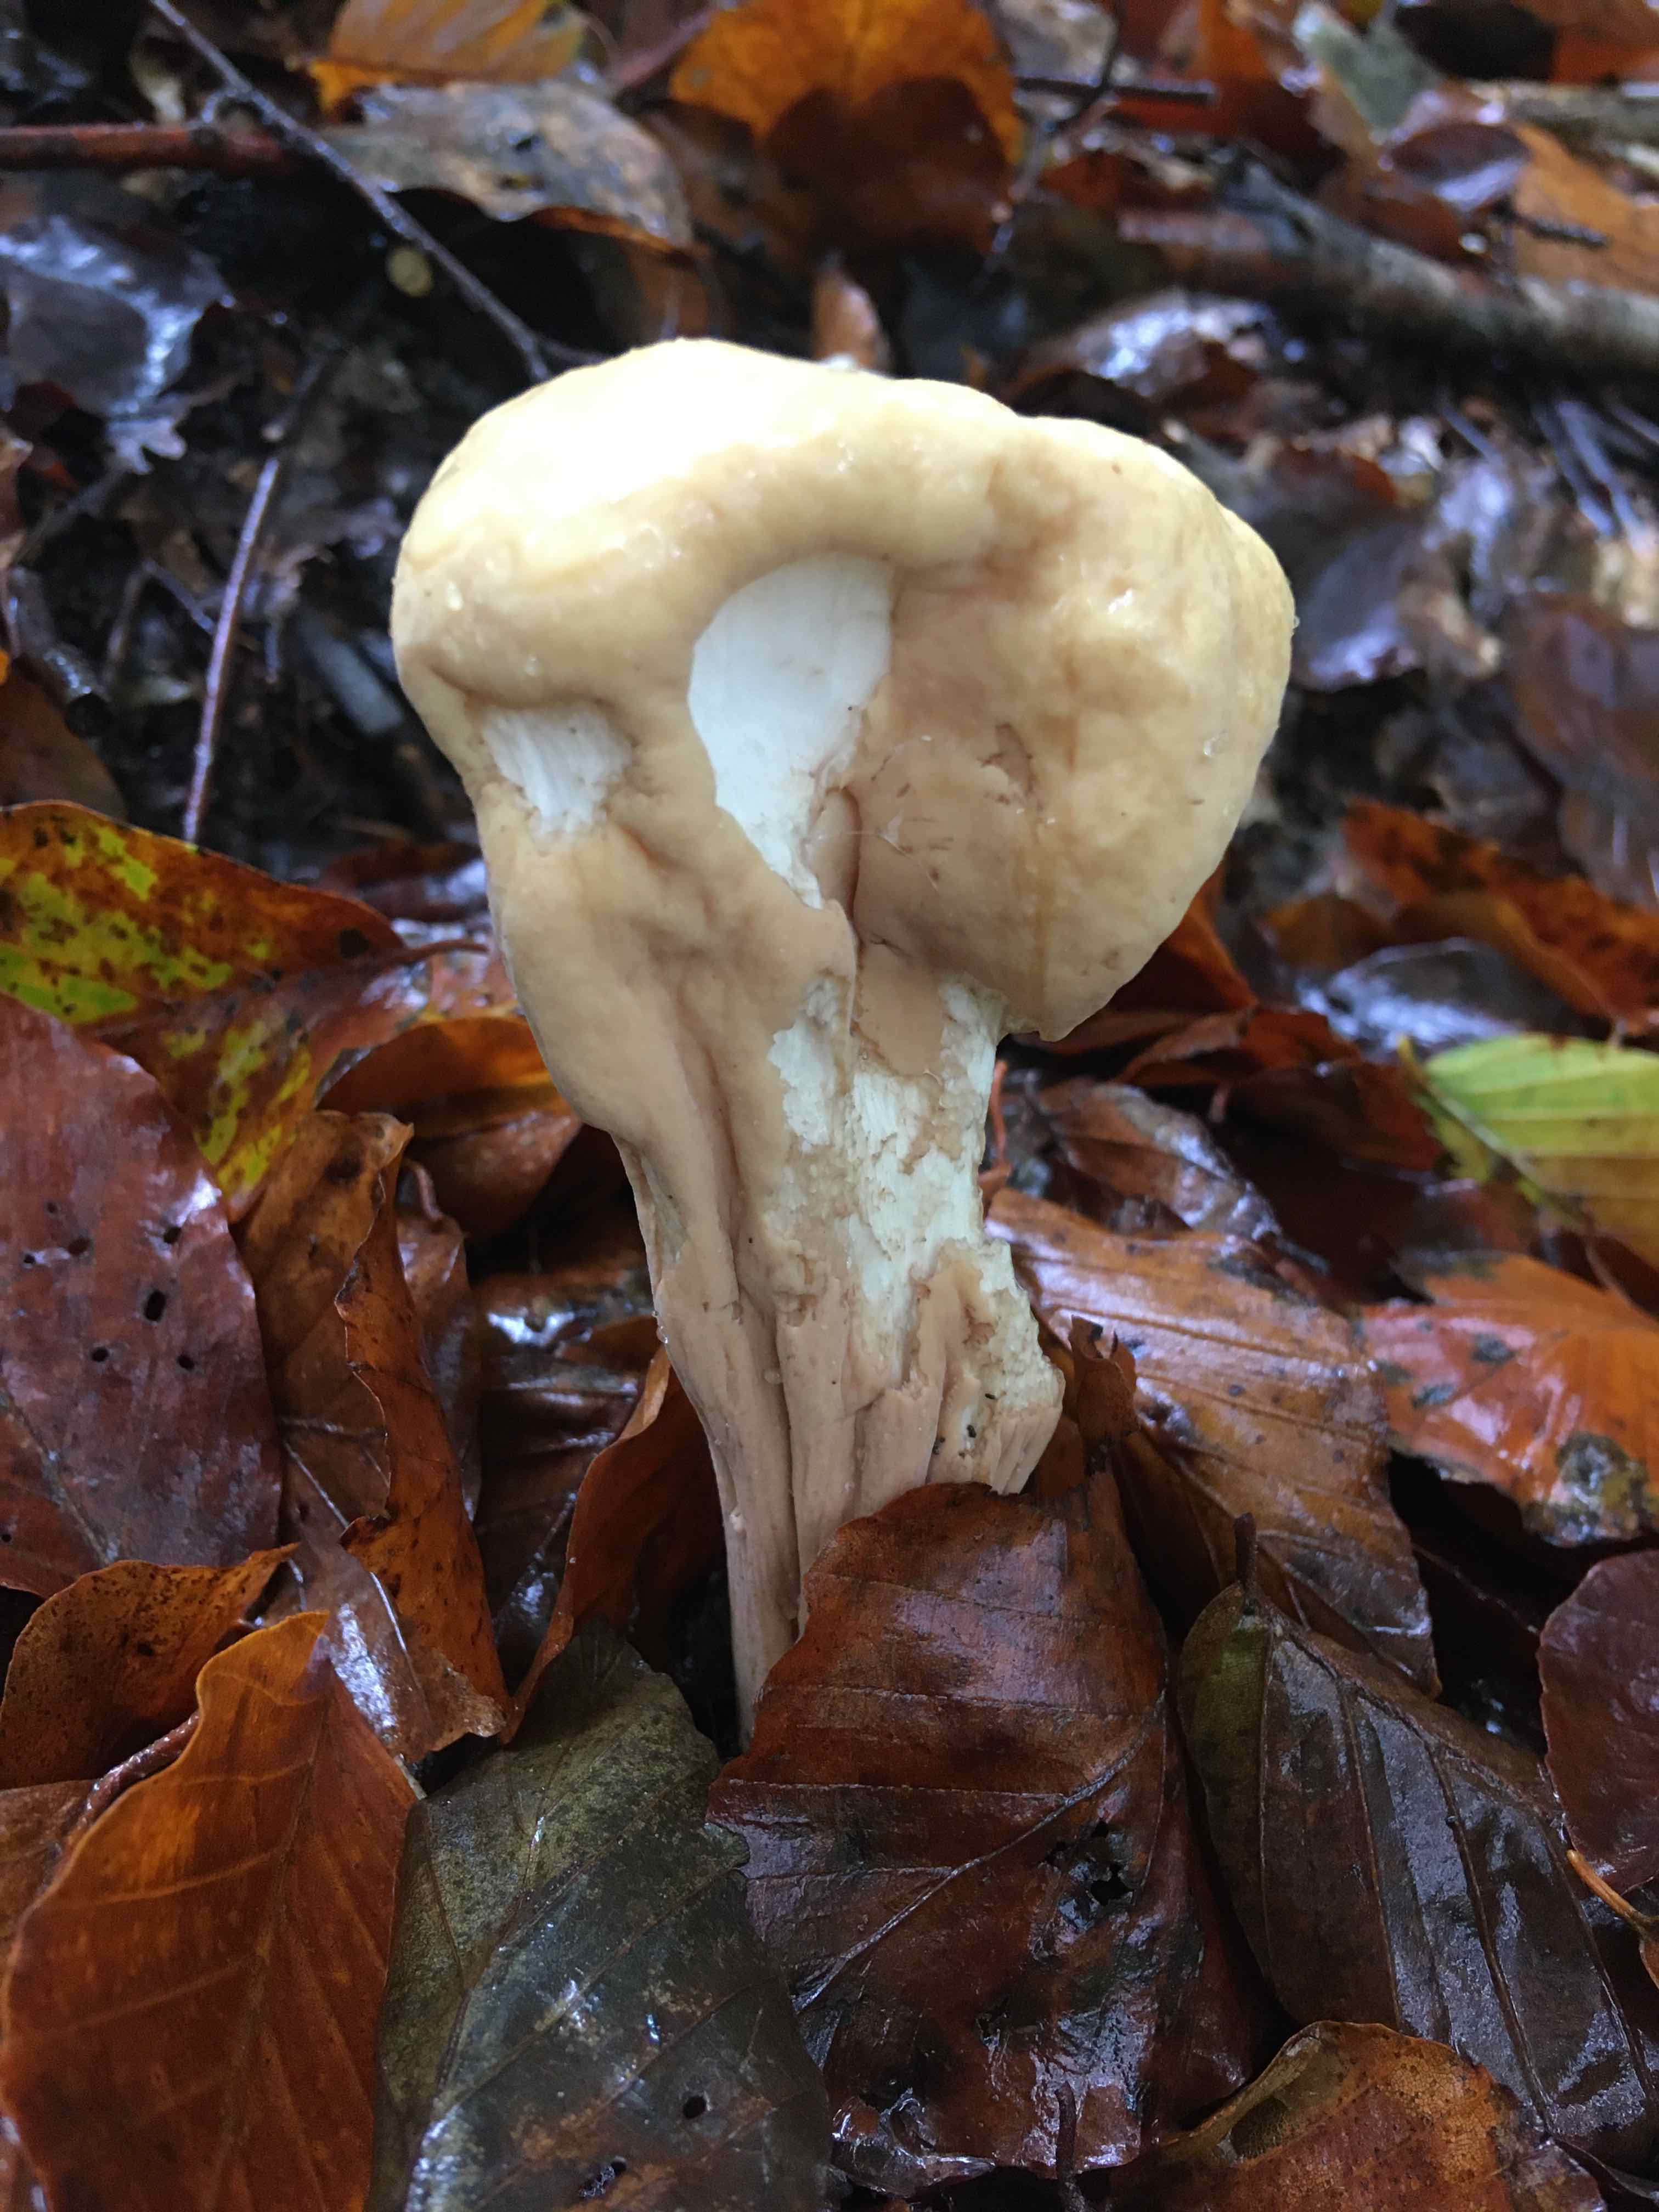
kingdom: Fungi
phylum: Basidiomycota
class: Agaricomycetes
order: Gomphales
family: Clavariadelphaceae
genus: Clavariadelphus
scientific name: Clavariadelphus pistillaris
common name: herkules-kæmpekølle
